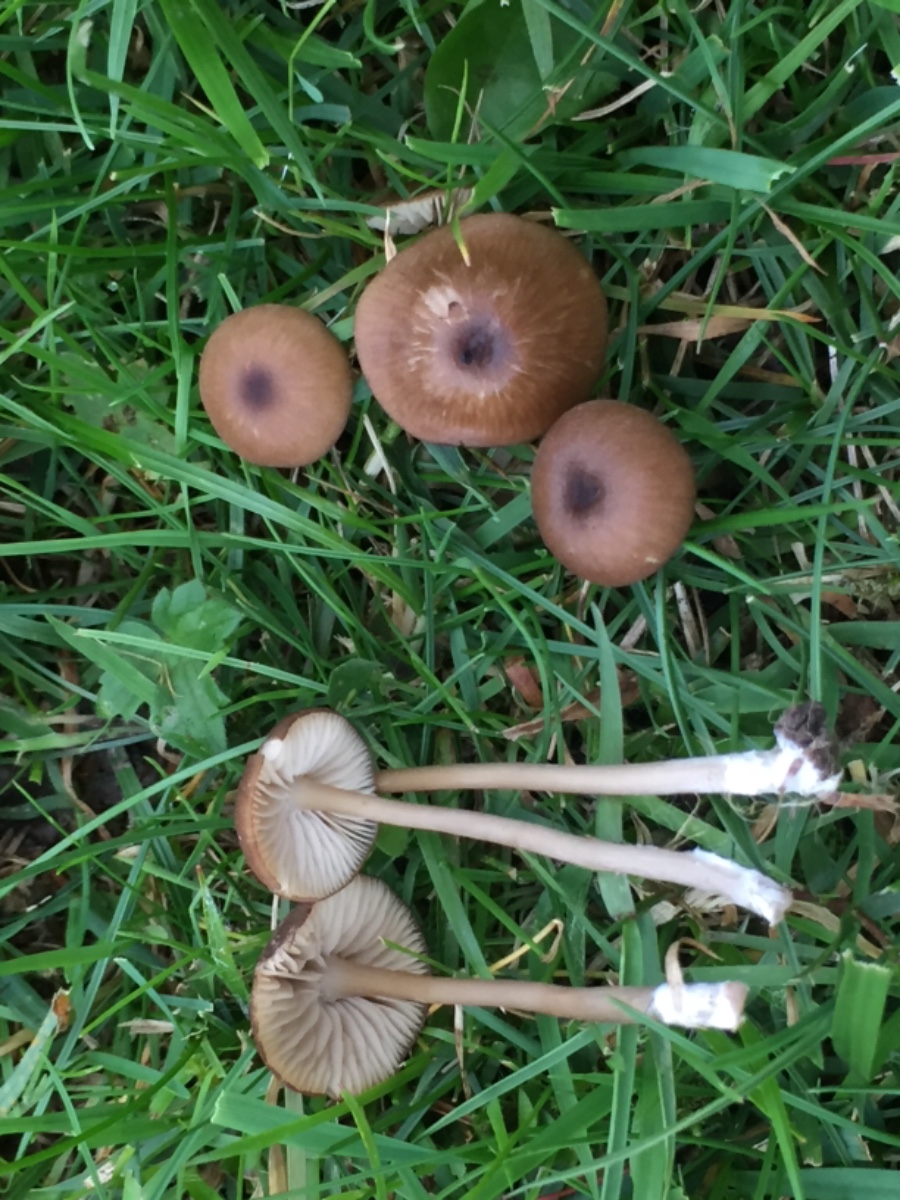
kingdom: Fungi
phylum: Basidiomycota
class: Agaricomycetes
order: Agaricales
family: Entolomataceae
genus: Entoloma
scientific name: Entoloma
